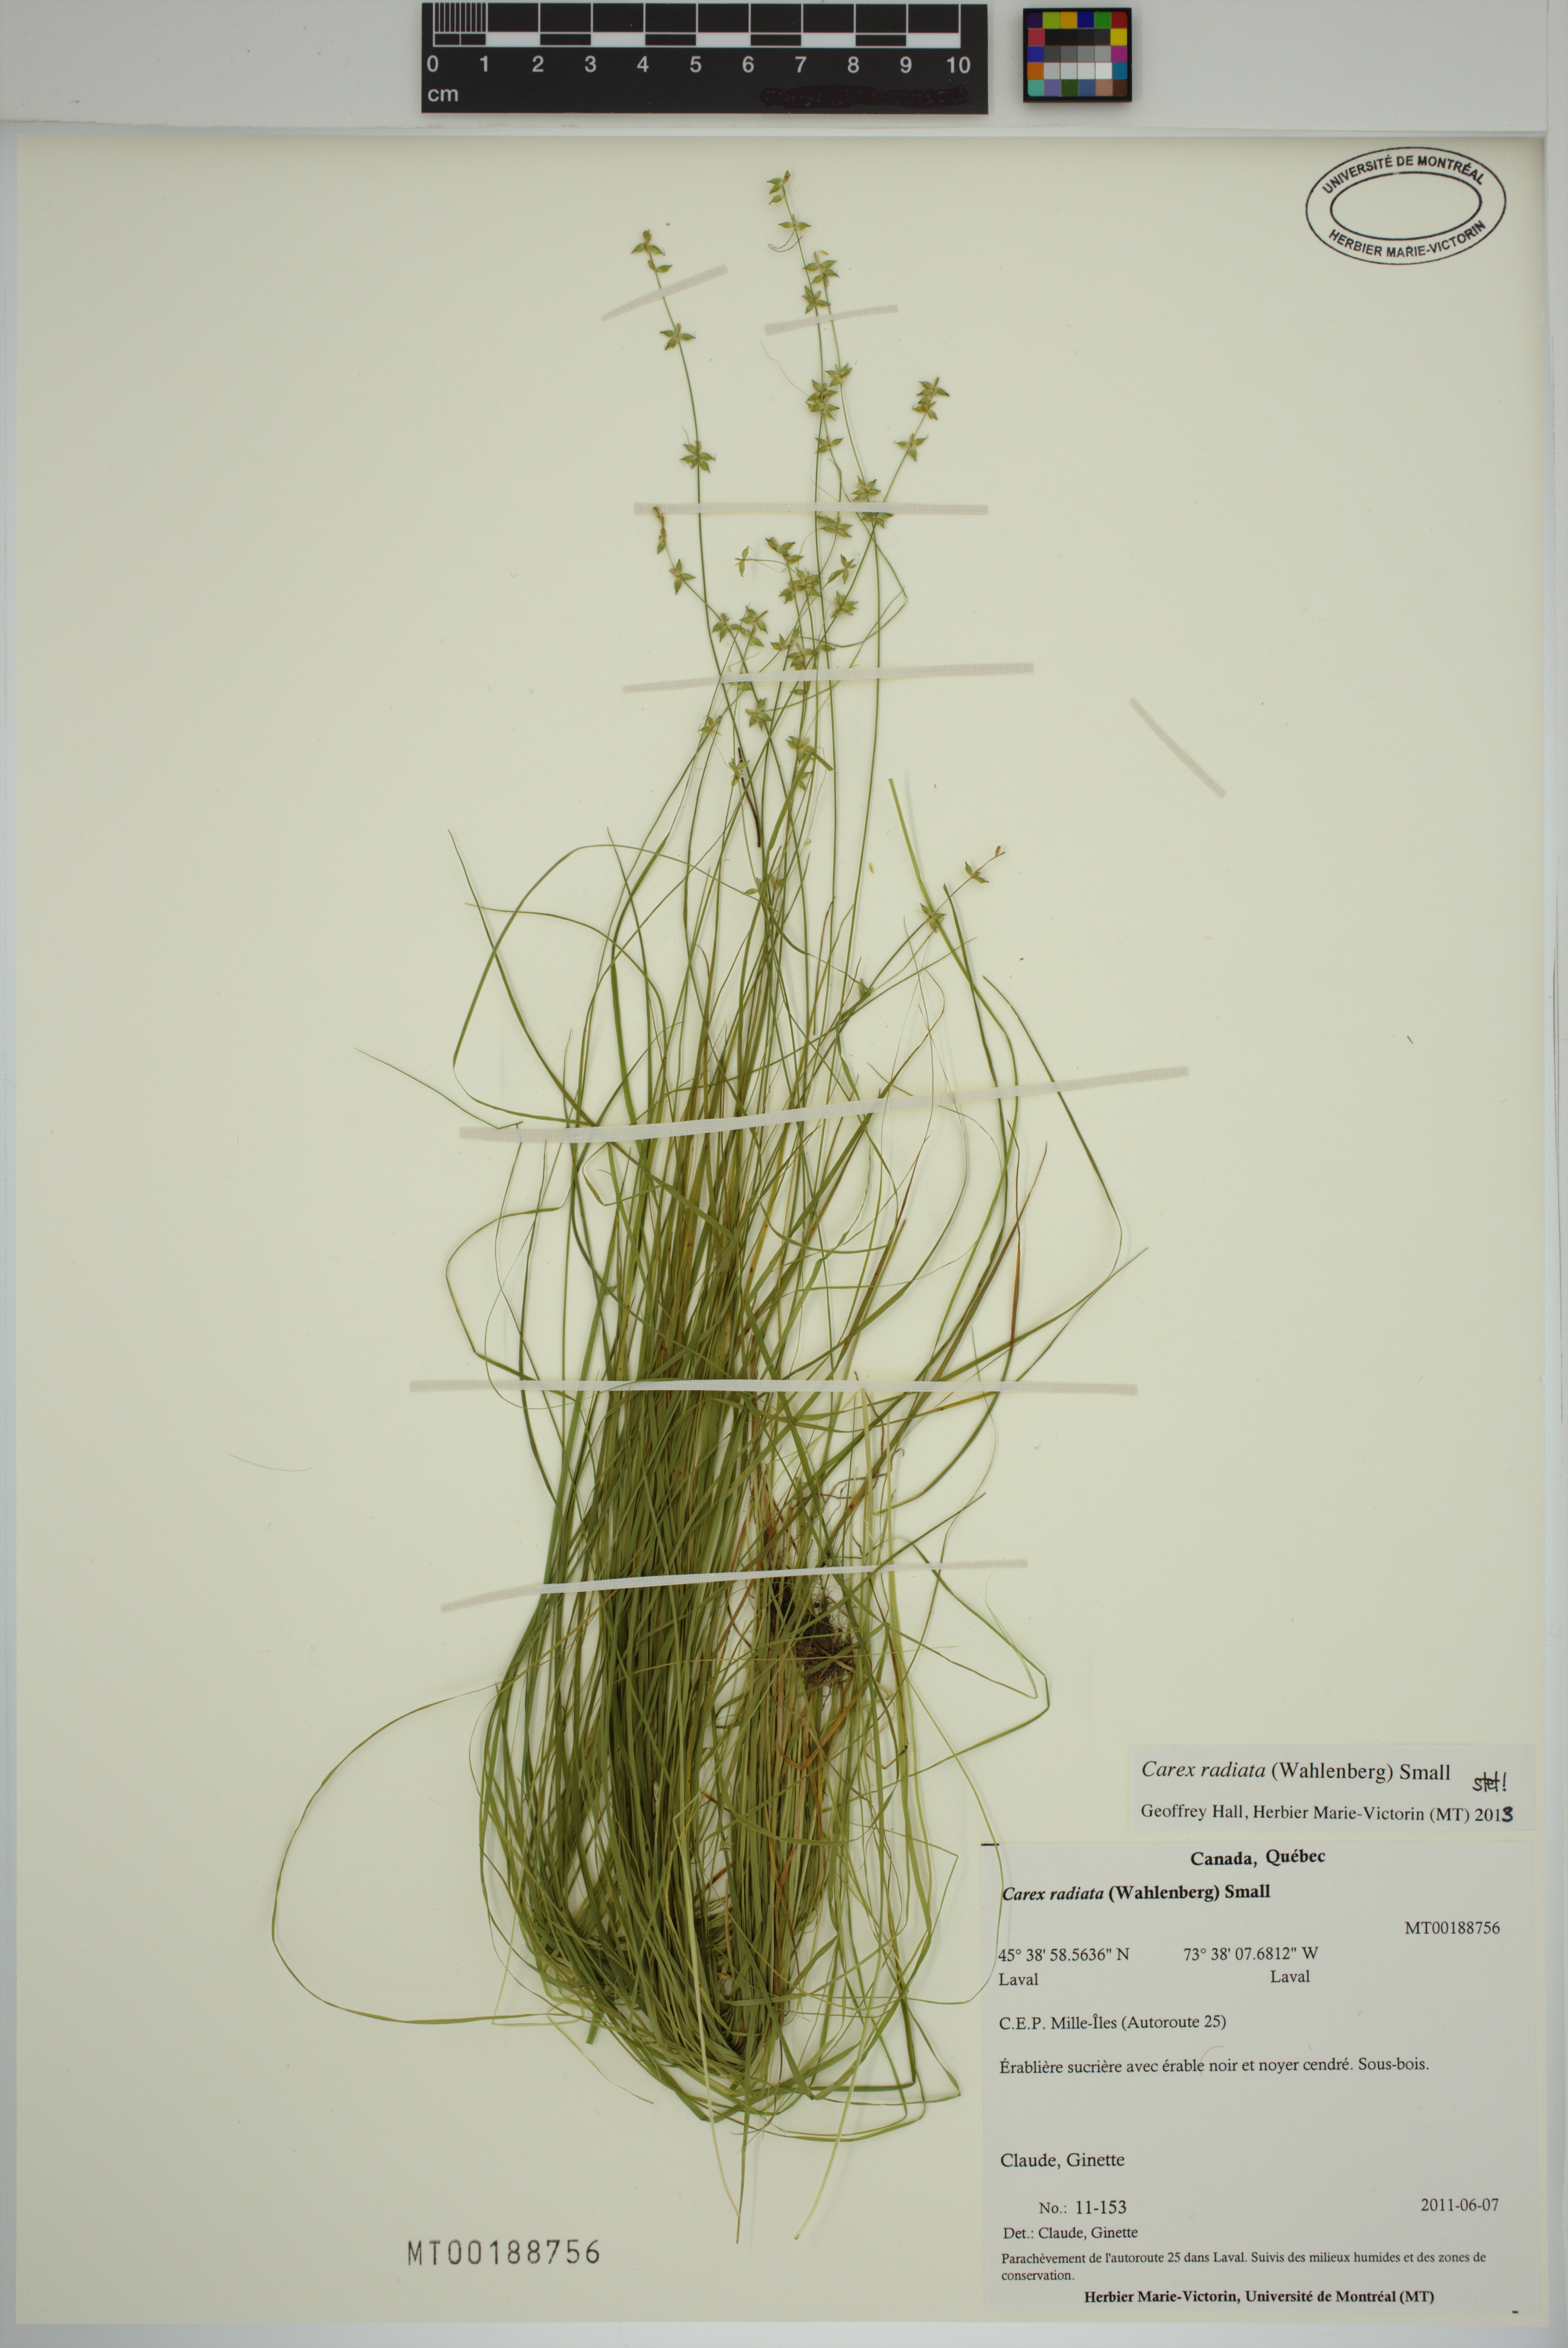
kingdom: Plantae
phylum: Tracheophyta
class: Liliopsida
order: Poales
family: Cyperaceae
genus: Carex
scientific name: Carex radiata
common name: Eastern star sedge
